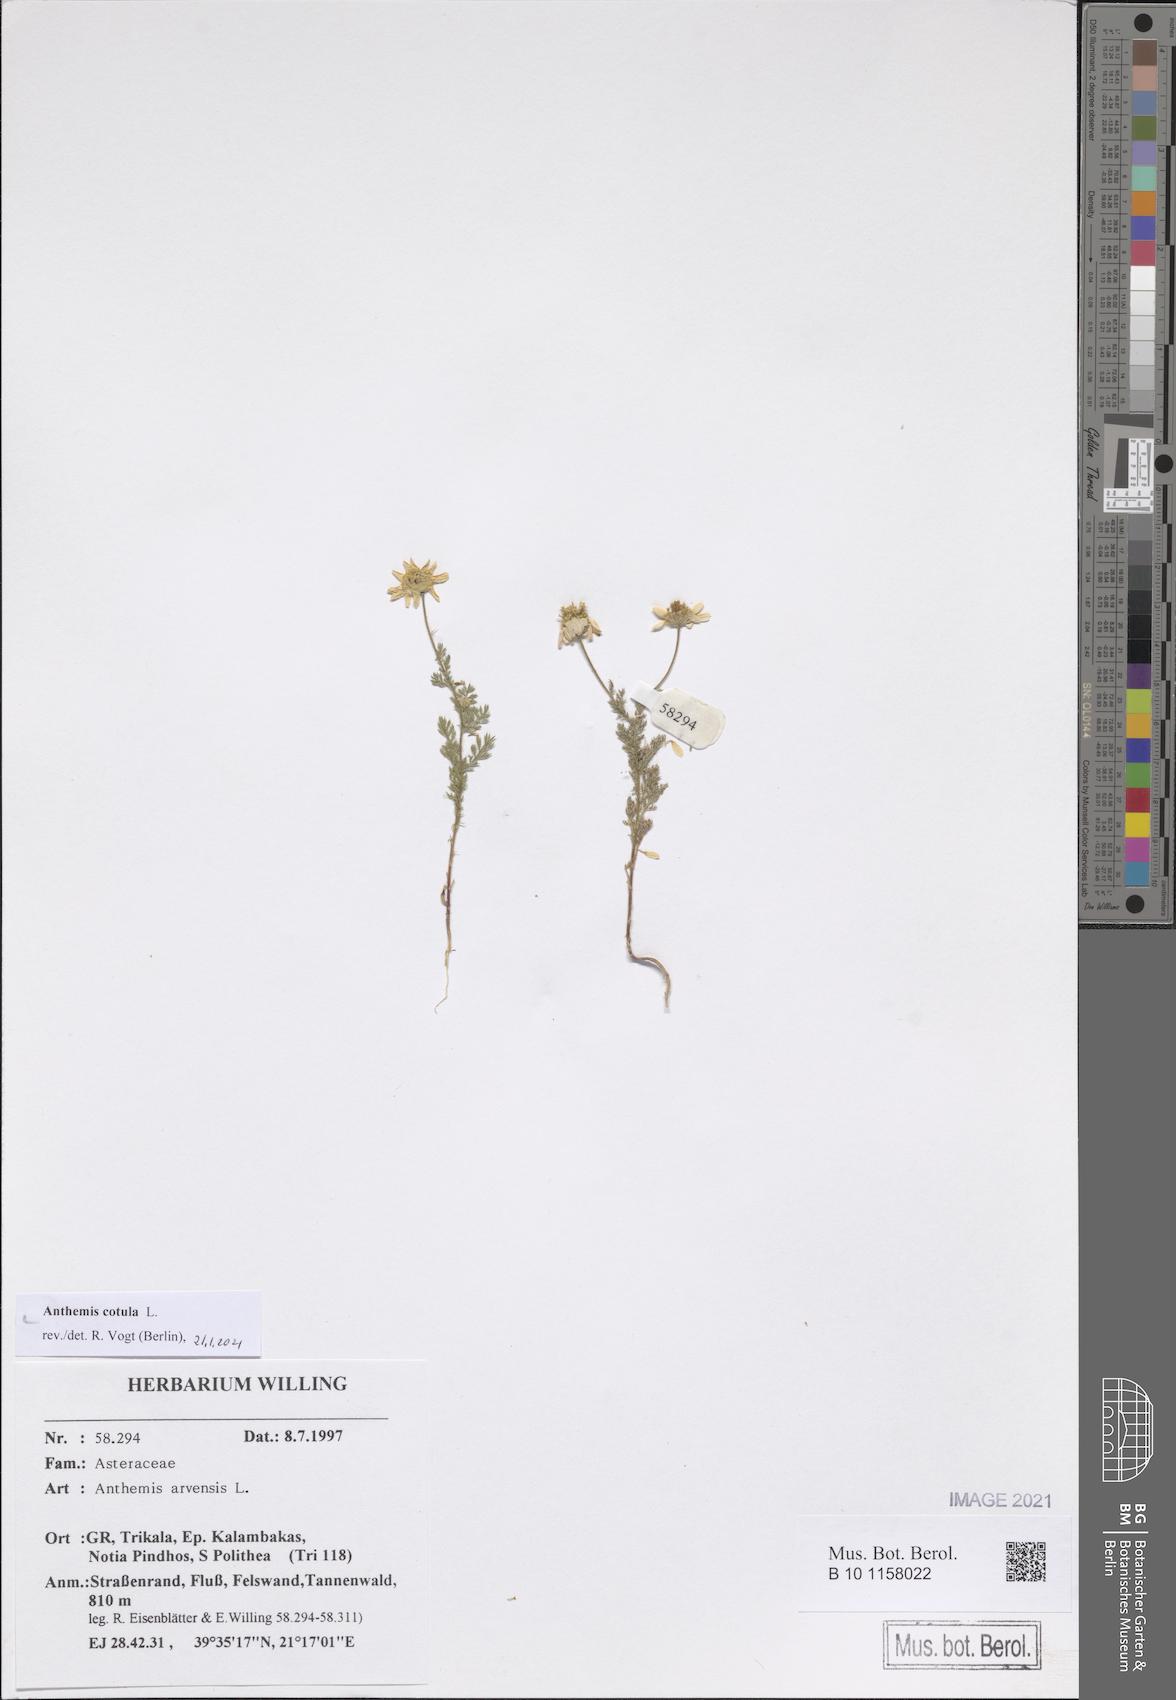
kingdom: Plantae
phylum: Tracheophyta
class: Magnoliopsida
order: Asterales
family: Asteraceae
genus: Anthemis
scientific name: Anthemis cotula
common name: Stinking chamomile
